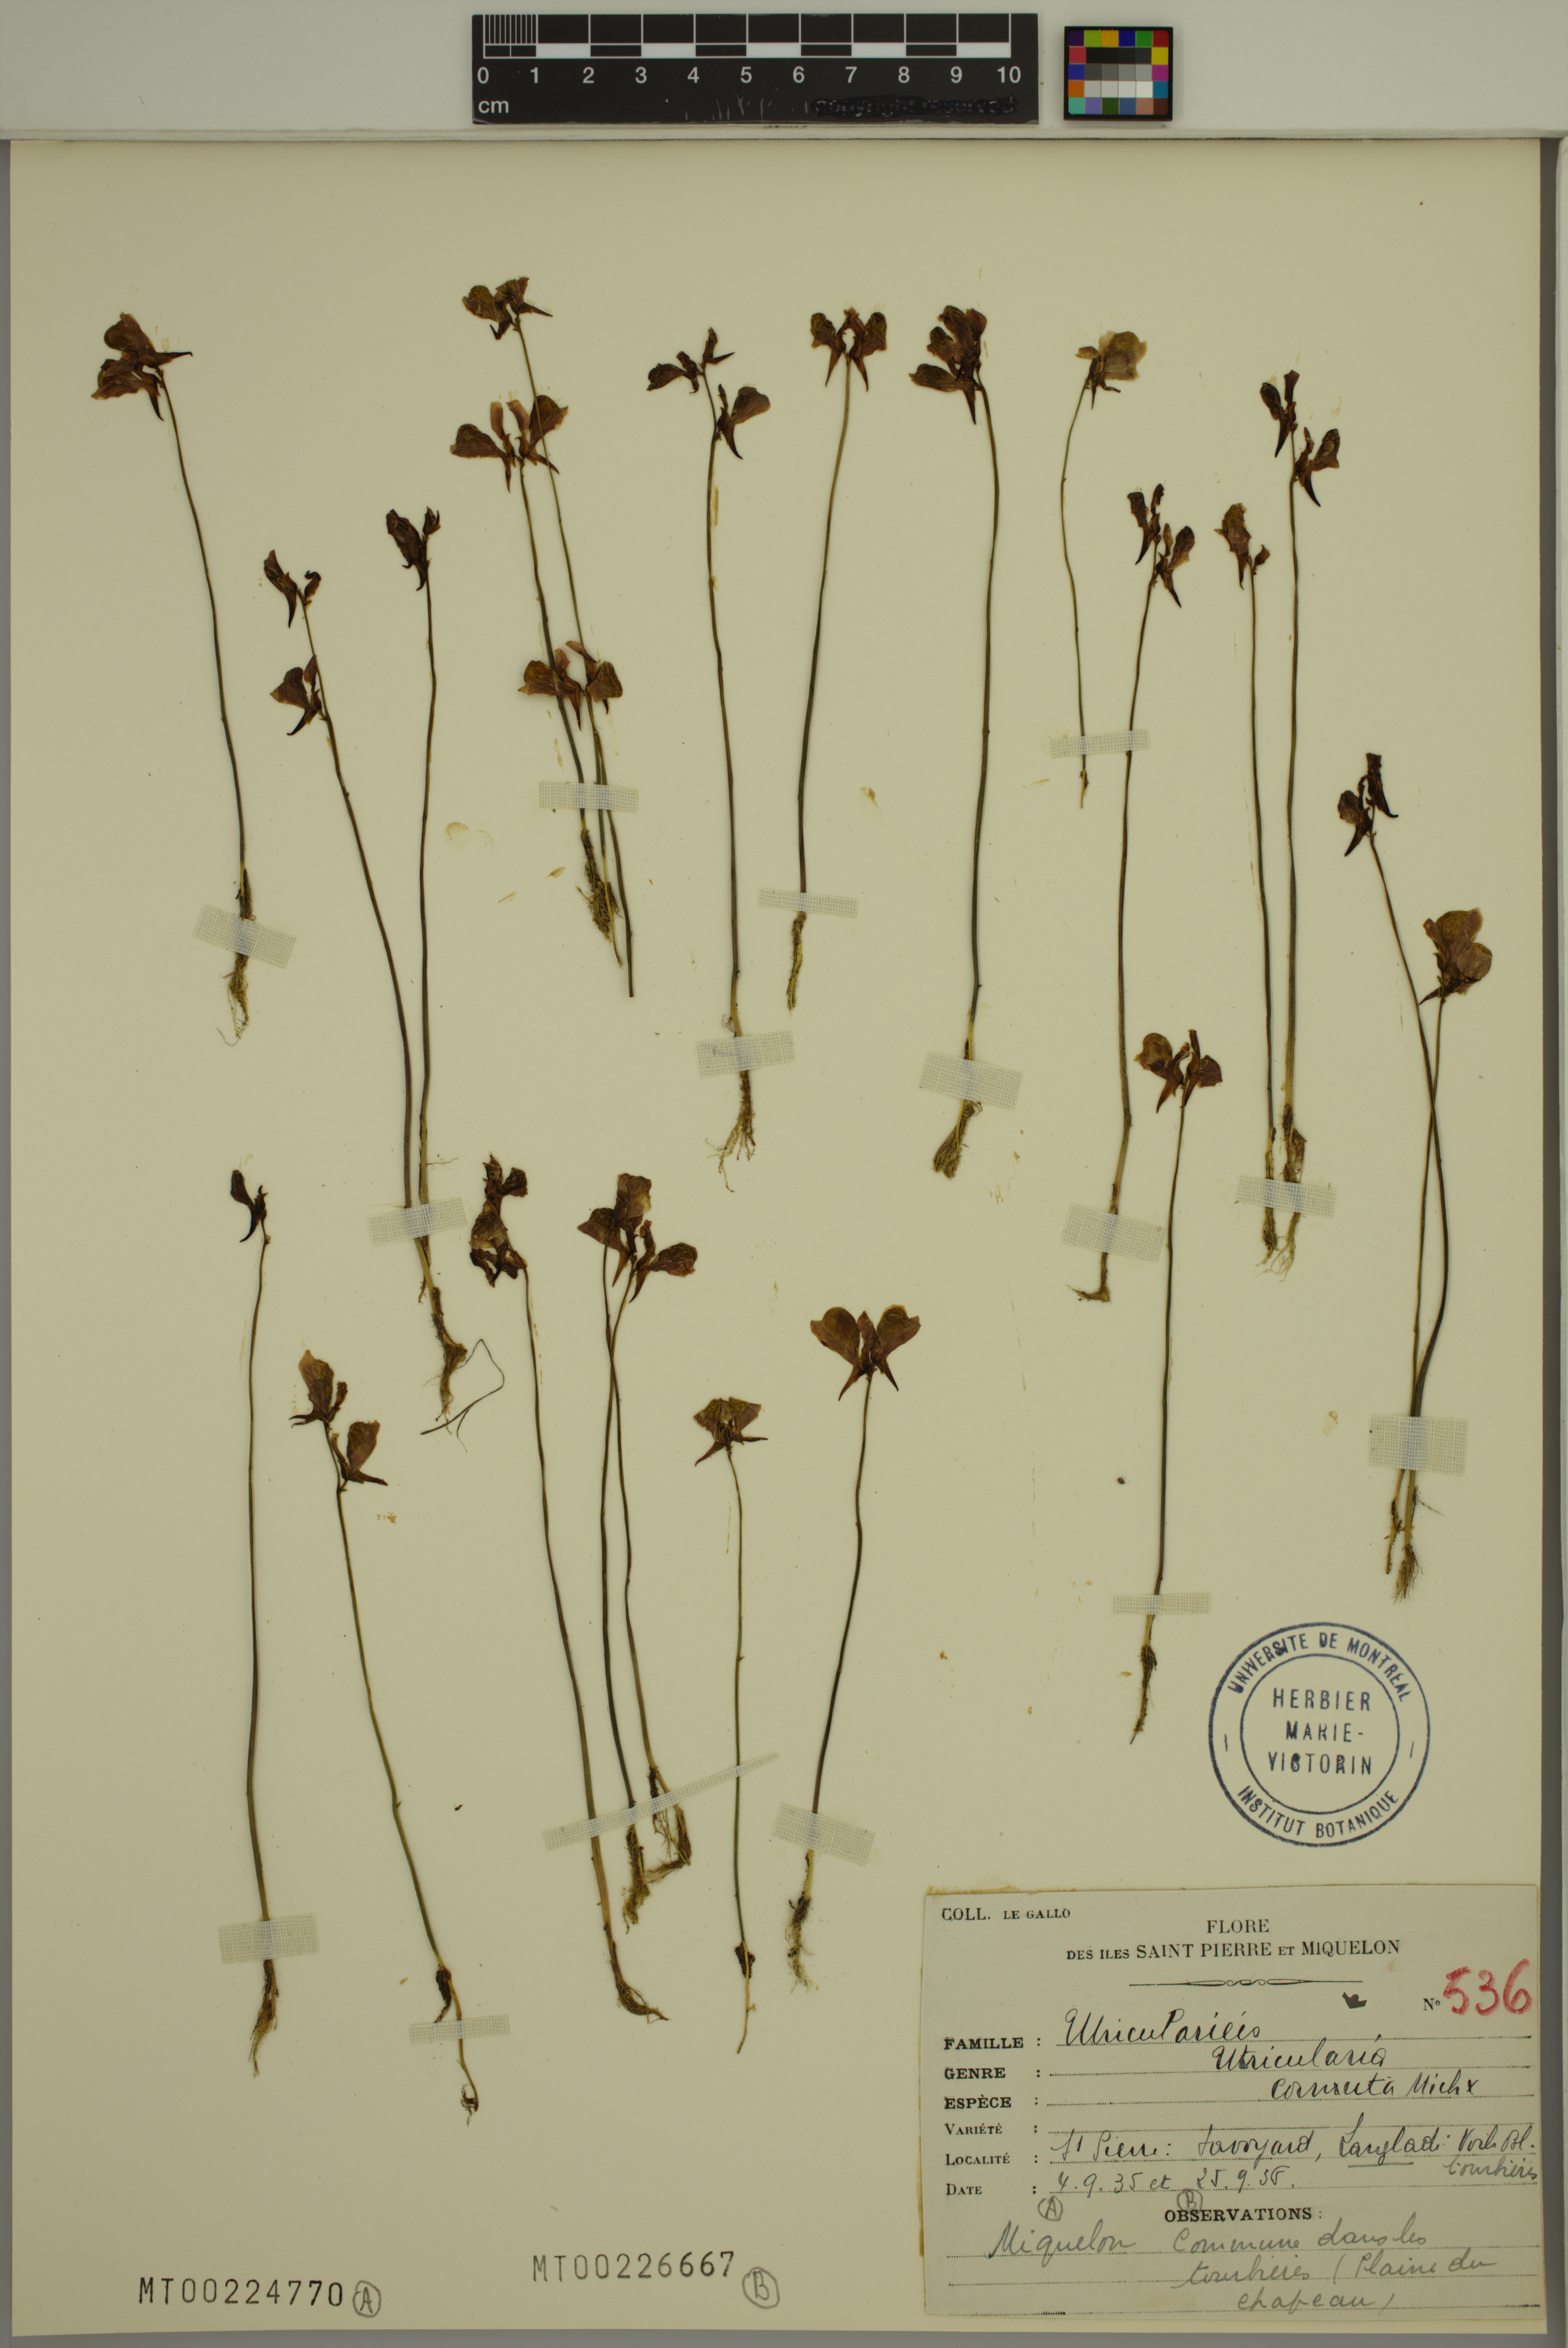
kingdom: Plantae
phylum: Tracheophyta
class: Magnoliopsida
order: Lamiales
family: Lentibulariaceae
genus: Utricularia
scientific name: Utricularia cornuta
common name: Horned bladderwort
